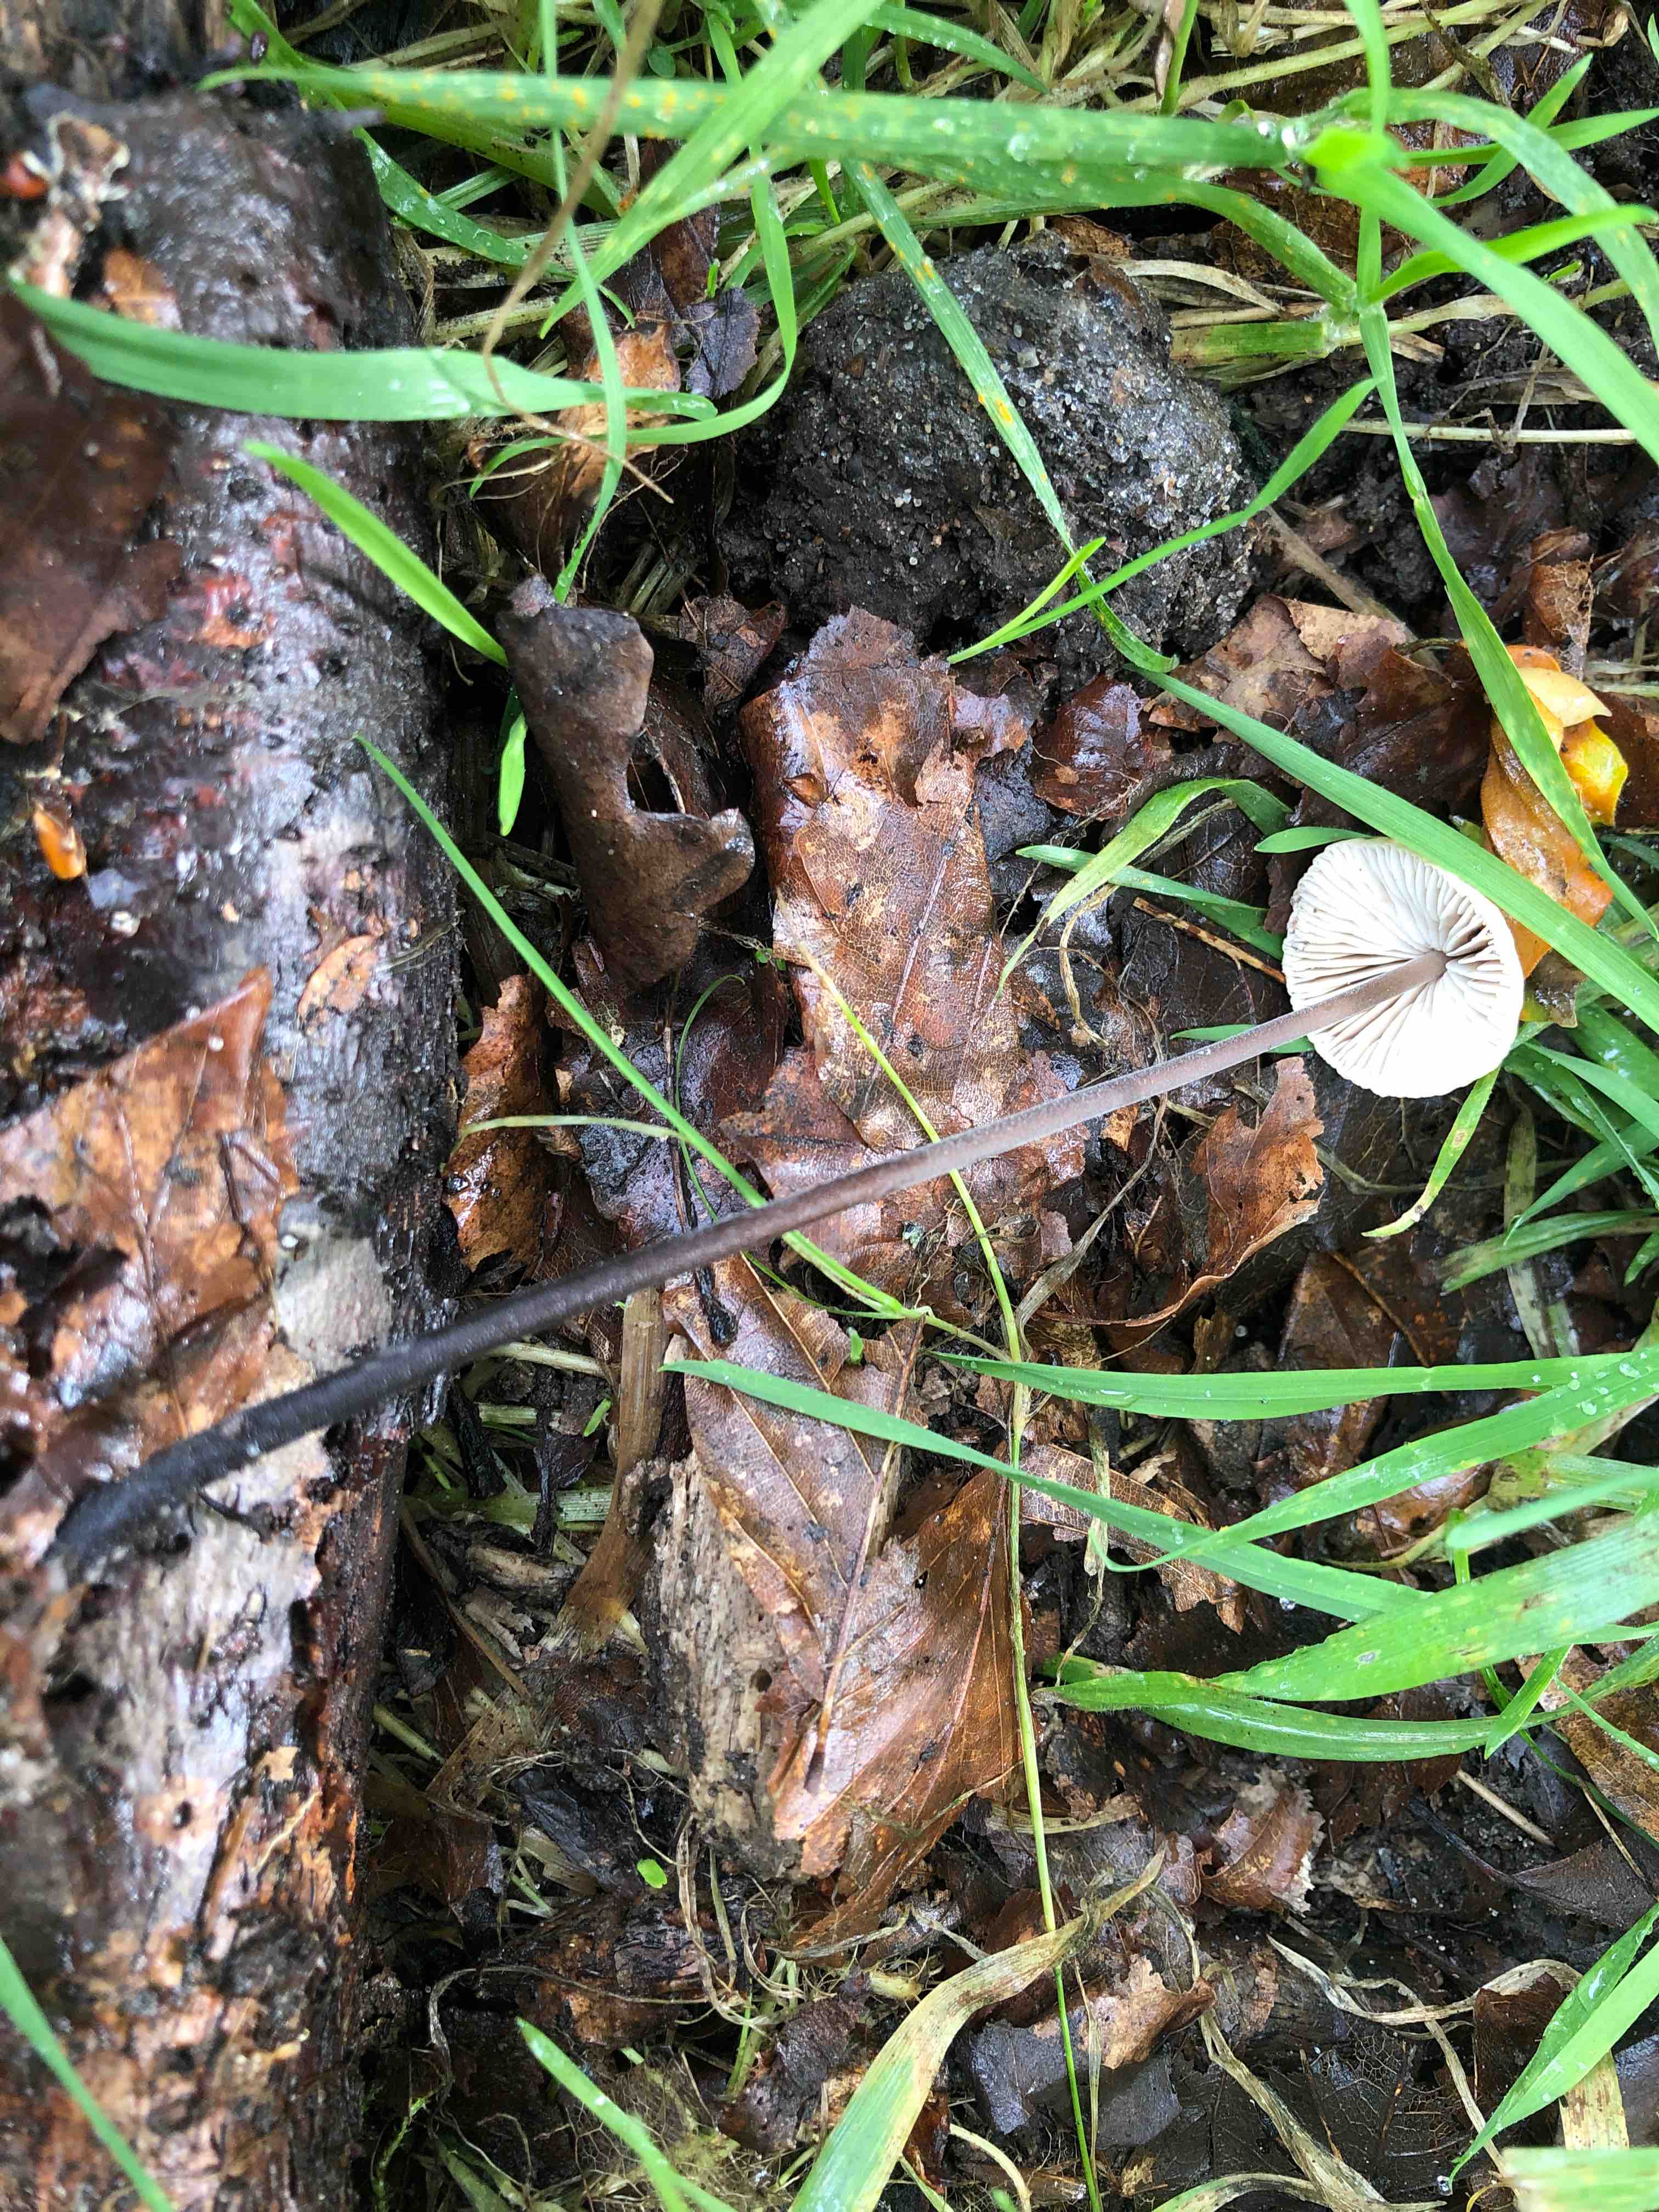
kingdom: Fungi
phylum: Basidiomycota
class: Agaricomycetes
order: Agaricales
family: Omphalotaceae
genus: Mycetinis
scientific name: Mycetinis alliaceus
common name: stor løghat
